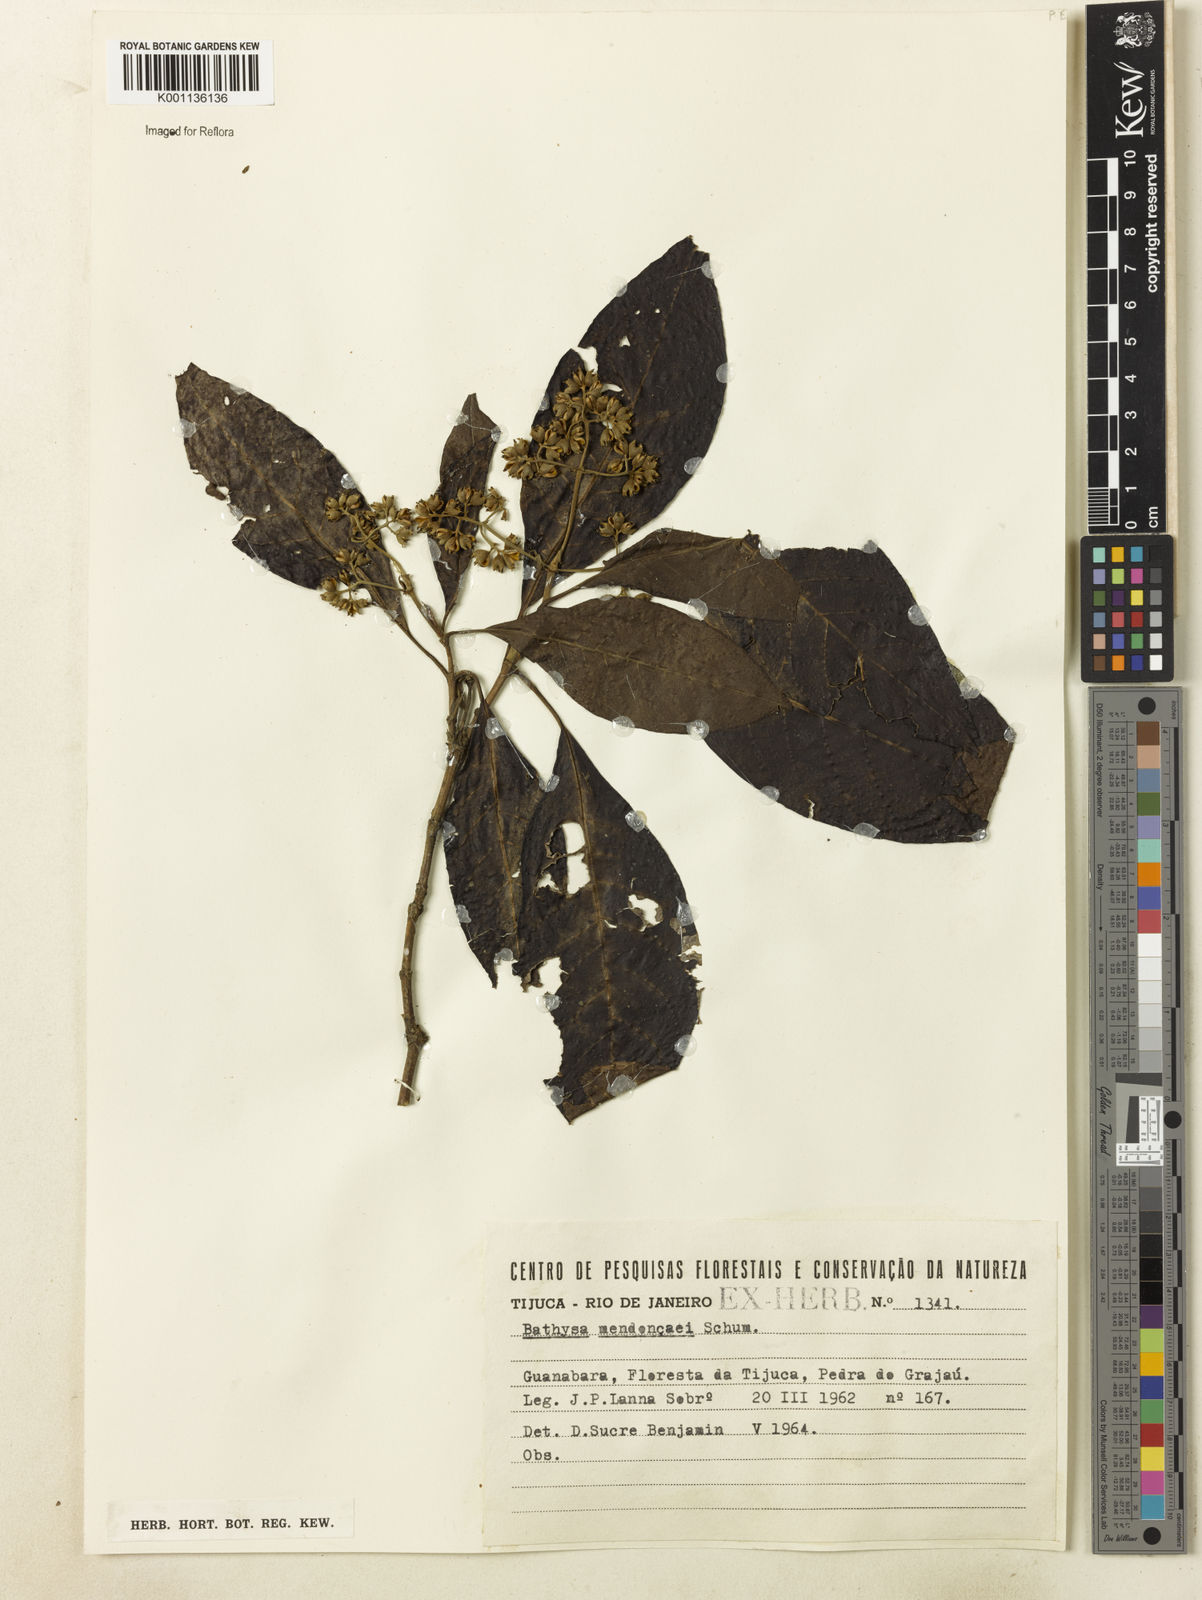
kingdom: Plantae
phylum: Tracheophyta
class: Magnoliopsida
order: Gentianales
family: Rubiaceae
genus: Bathysa
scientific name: Bathysa
